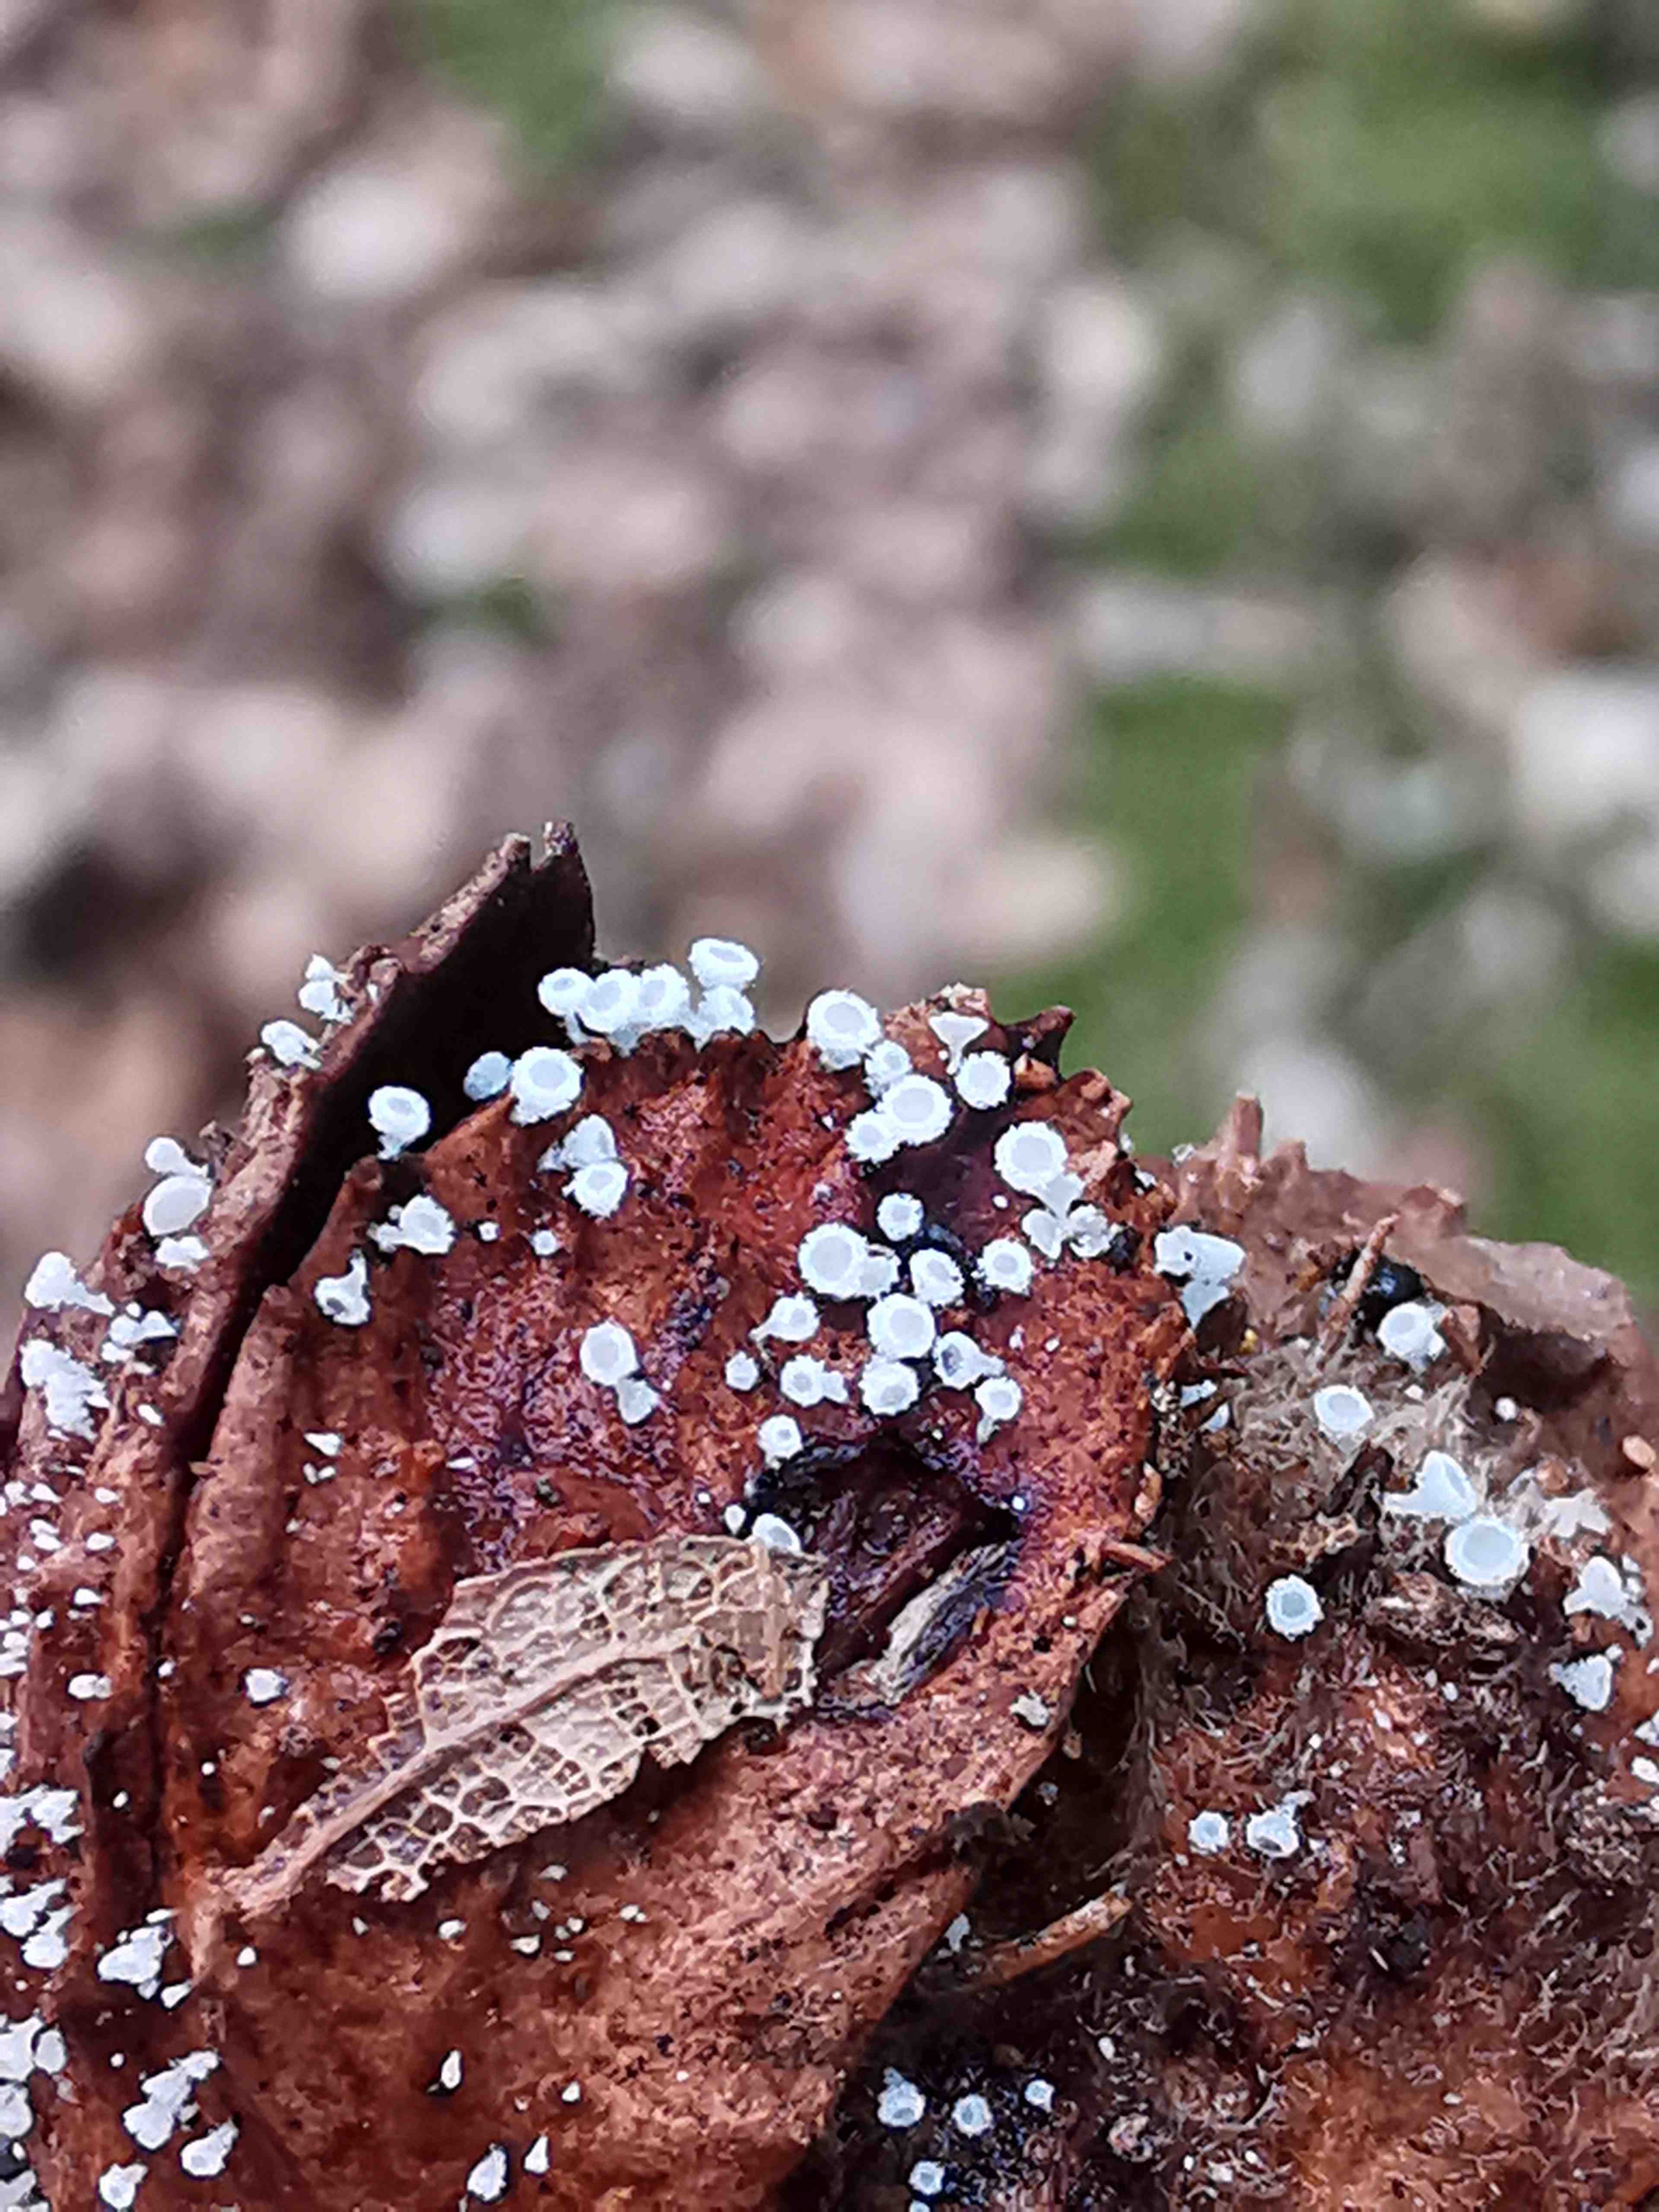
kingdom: Fungi
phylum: Ascomycota
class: Leotiomycetes
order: Helotiales
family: Lachnaceae
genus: Lachnum
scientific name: Lachnum virgineum
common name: jomfru-frynseskive
